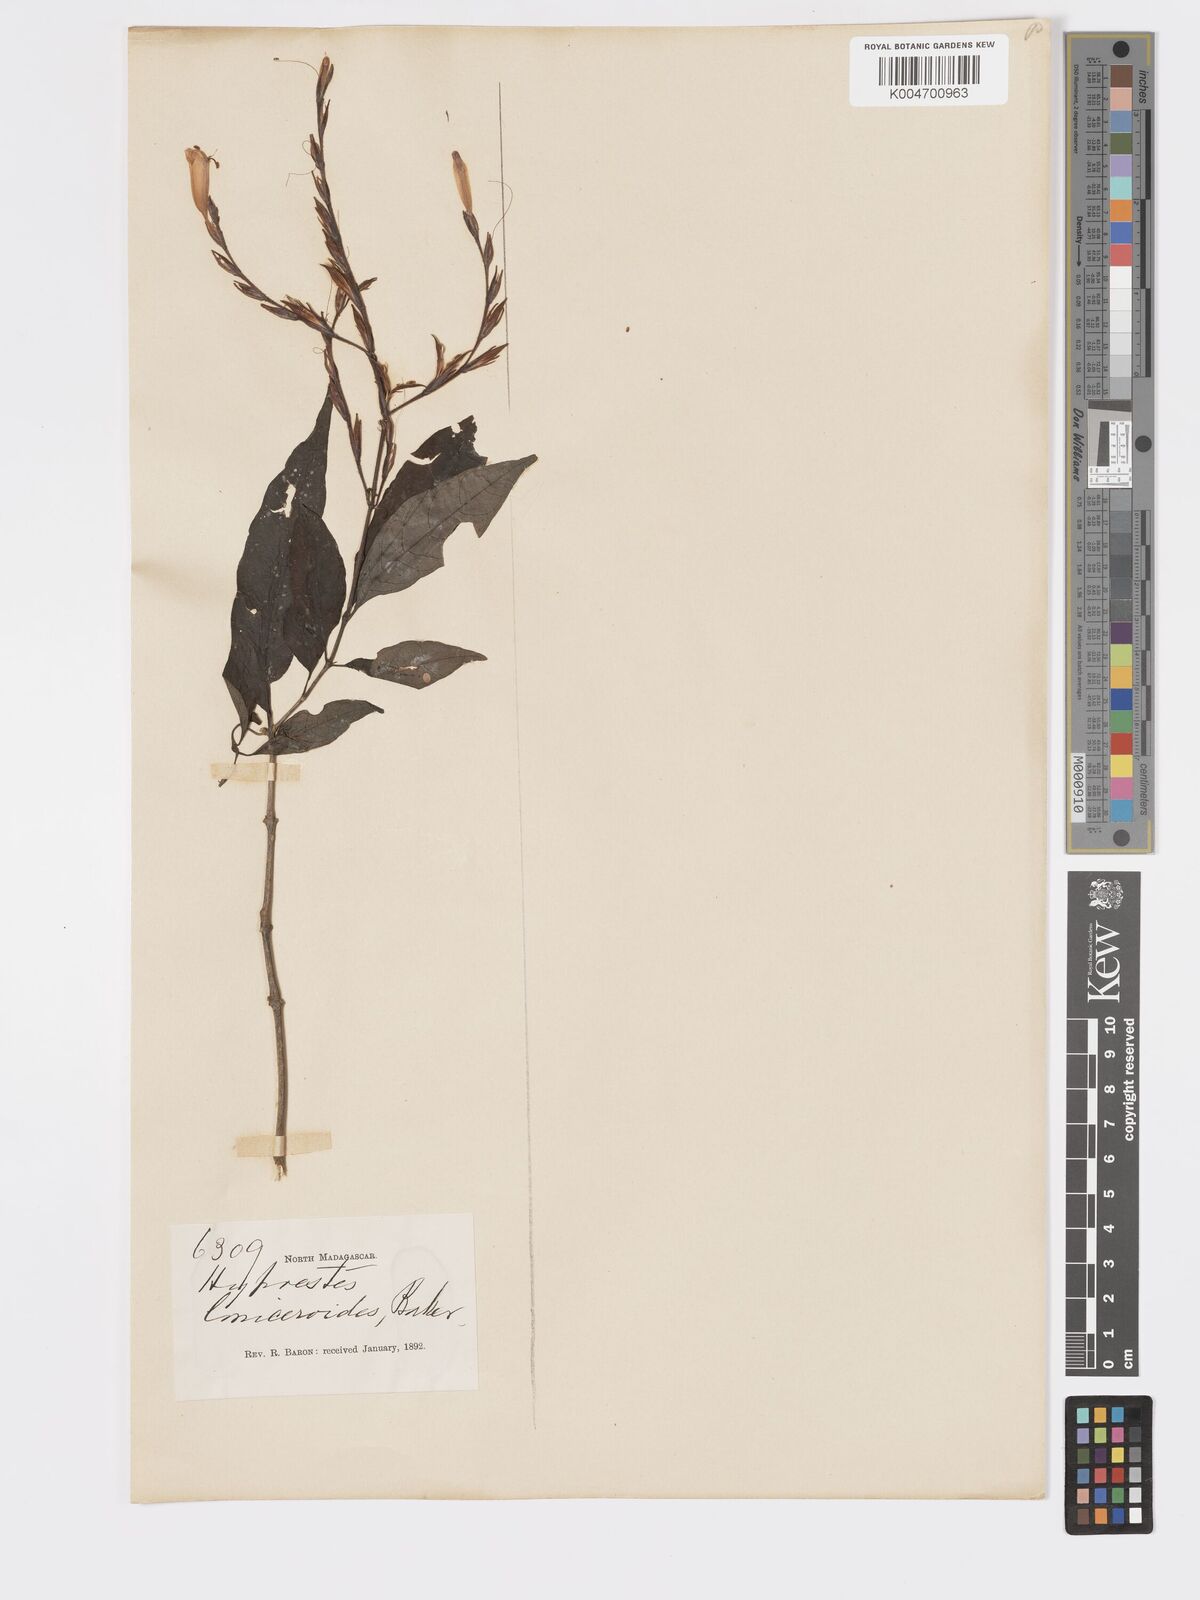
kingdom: Plantae
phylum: Tracheophyta
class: Magnoliopsida
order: Lamiales
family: Acanthaceae
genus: Hypoestes
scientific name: Hypoestes
